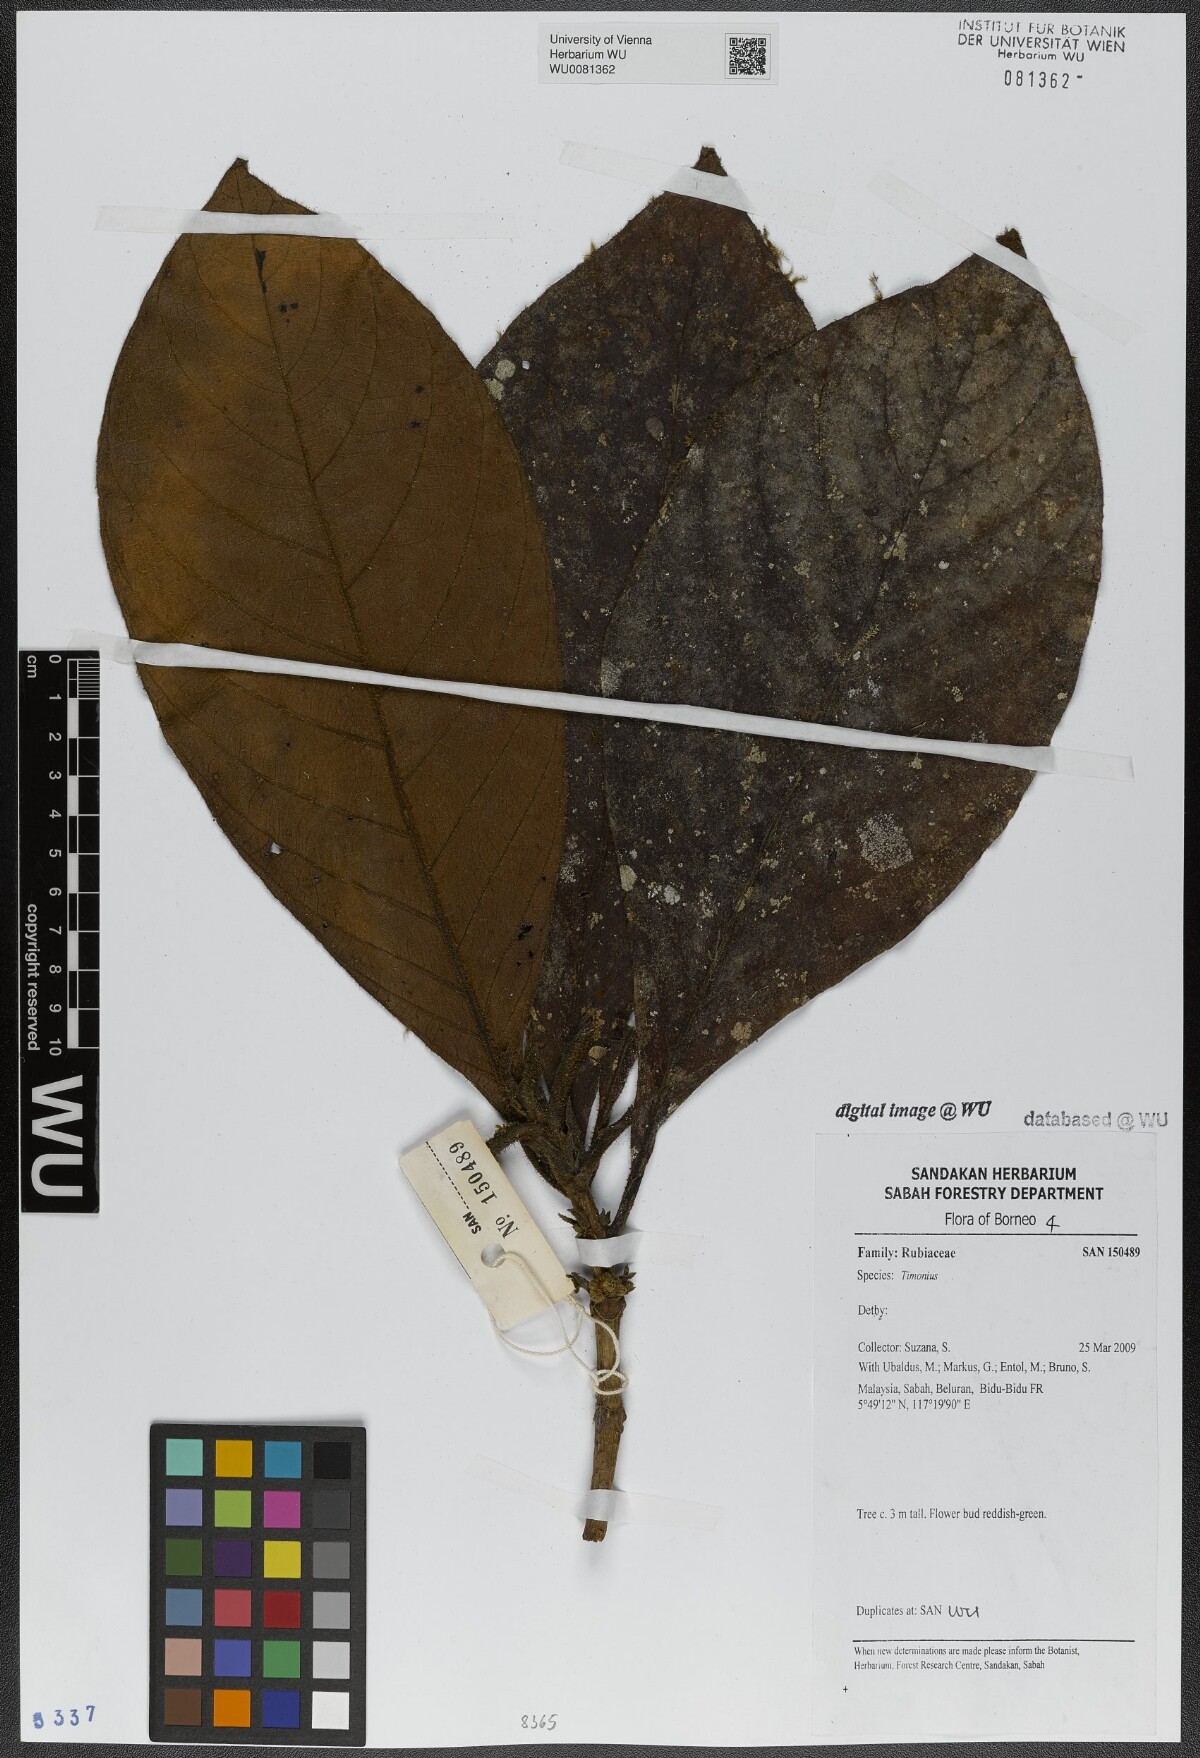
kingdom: Plantae
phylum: Tracheophyta
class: Magnoliopsida
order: Gentianales
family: Rubiaceae
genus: Timonius
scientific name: Timonius
